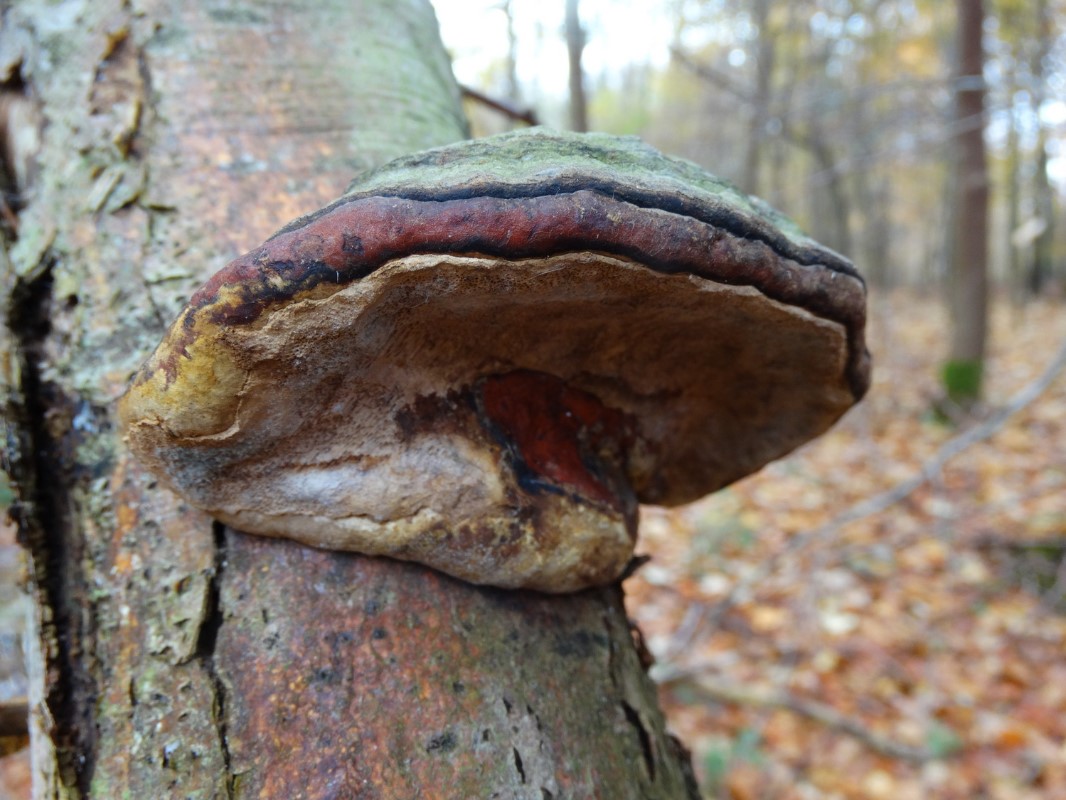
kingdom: Fungi
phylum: Basidiomycota
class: Agaricomycetes
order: Polyporales
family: Fomitopsidaceae
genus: Fomitopsis
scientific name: Fomitopsis pinicola
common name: randbæltet hovporesvamp
